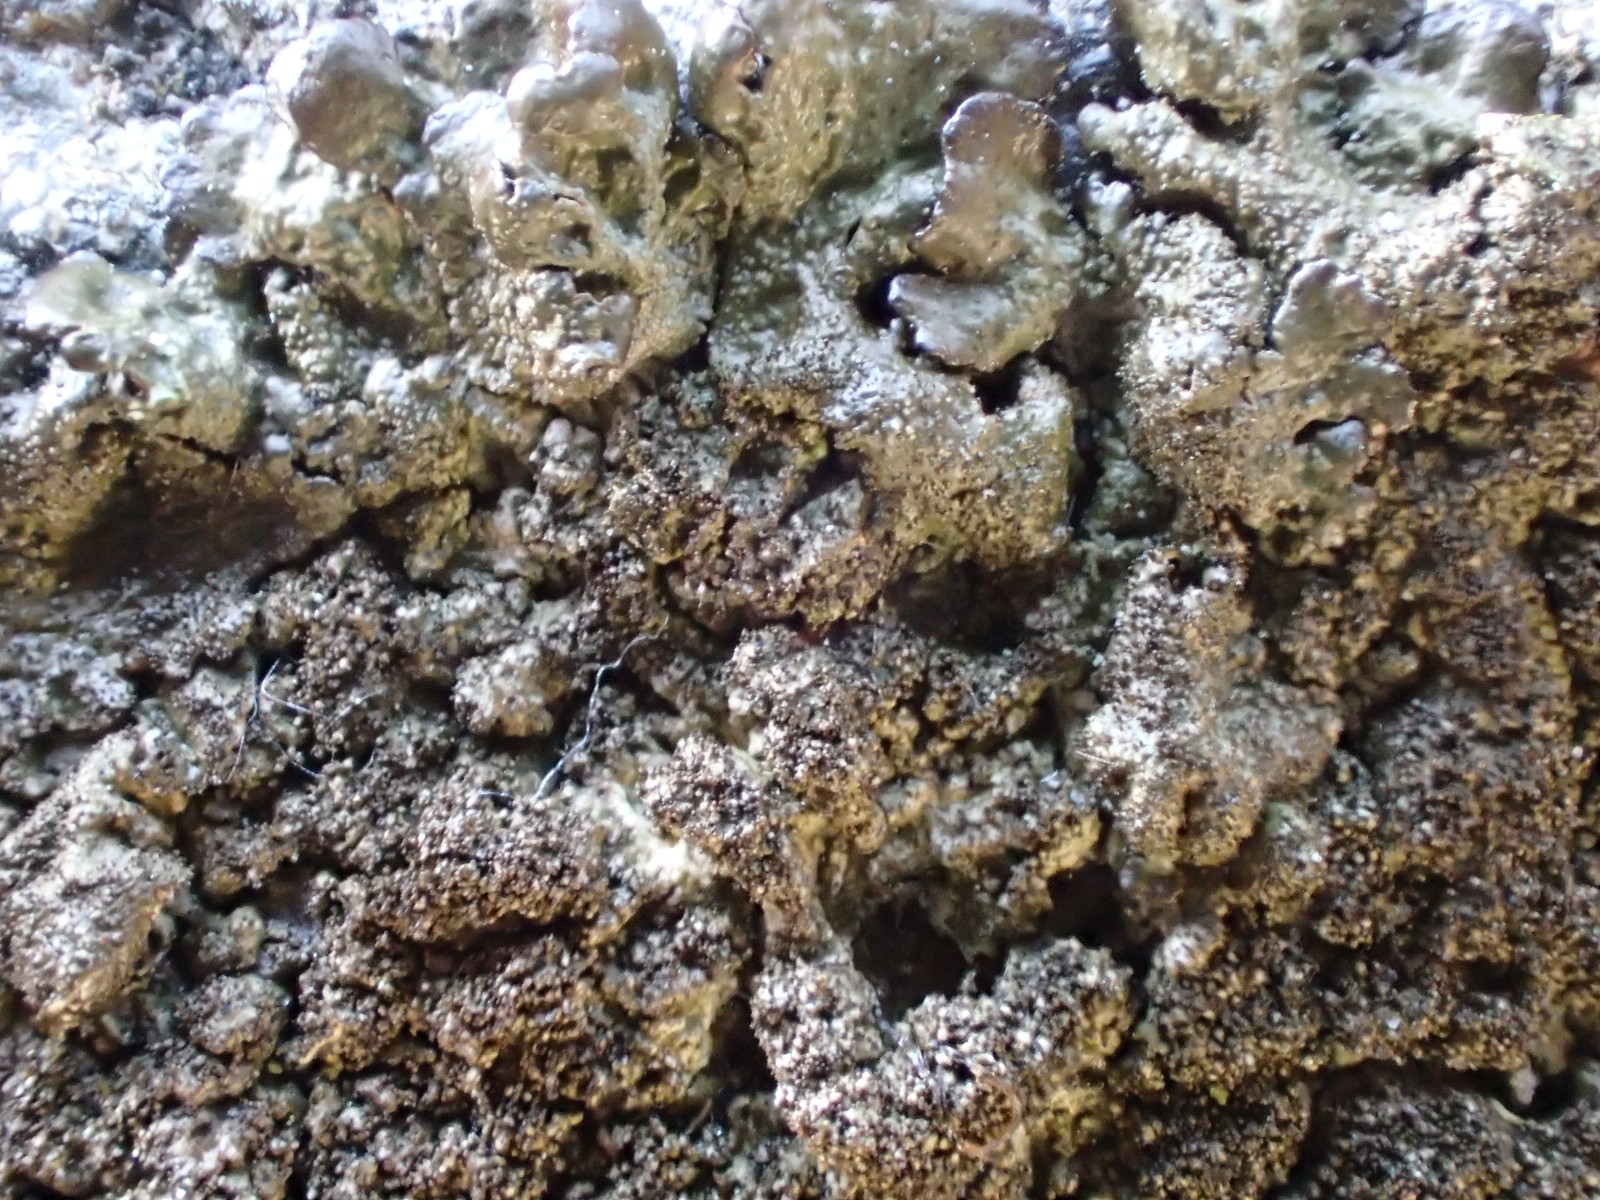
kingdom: Fungi
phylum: Ascomycota
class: Lecanoromycetes
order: Lecanorales
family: Parmeliaceae
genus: Melanelixia
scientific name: Melanelixia fuliginosa
